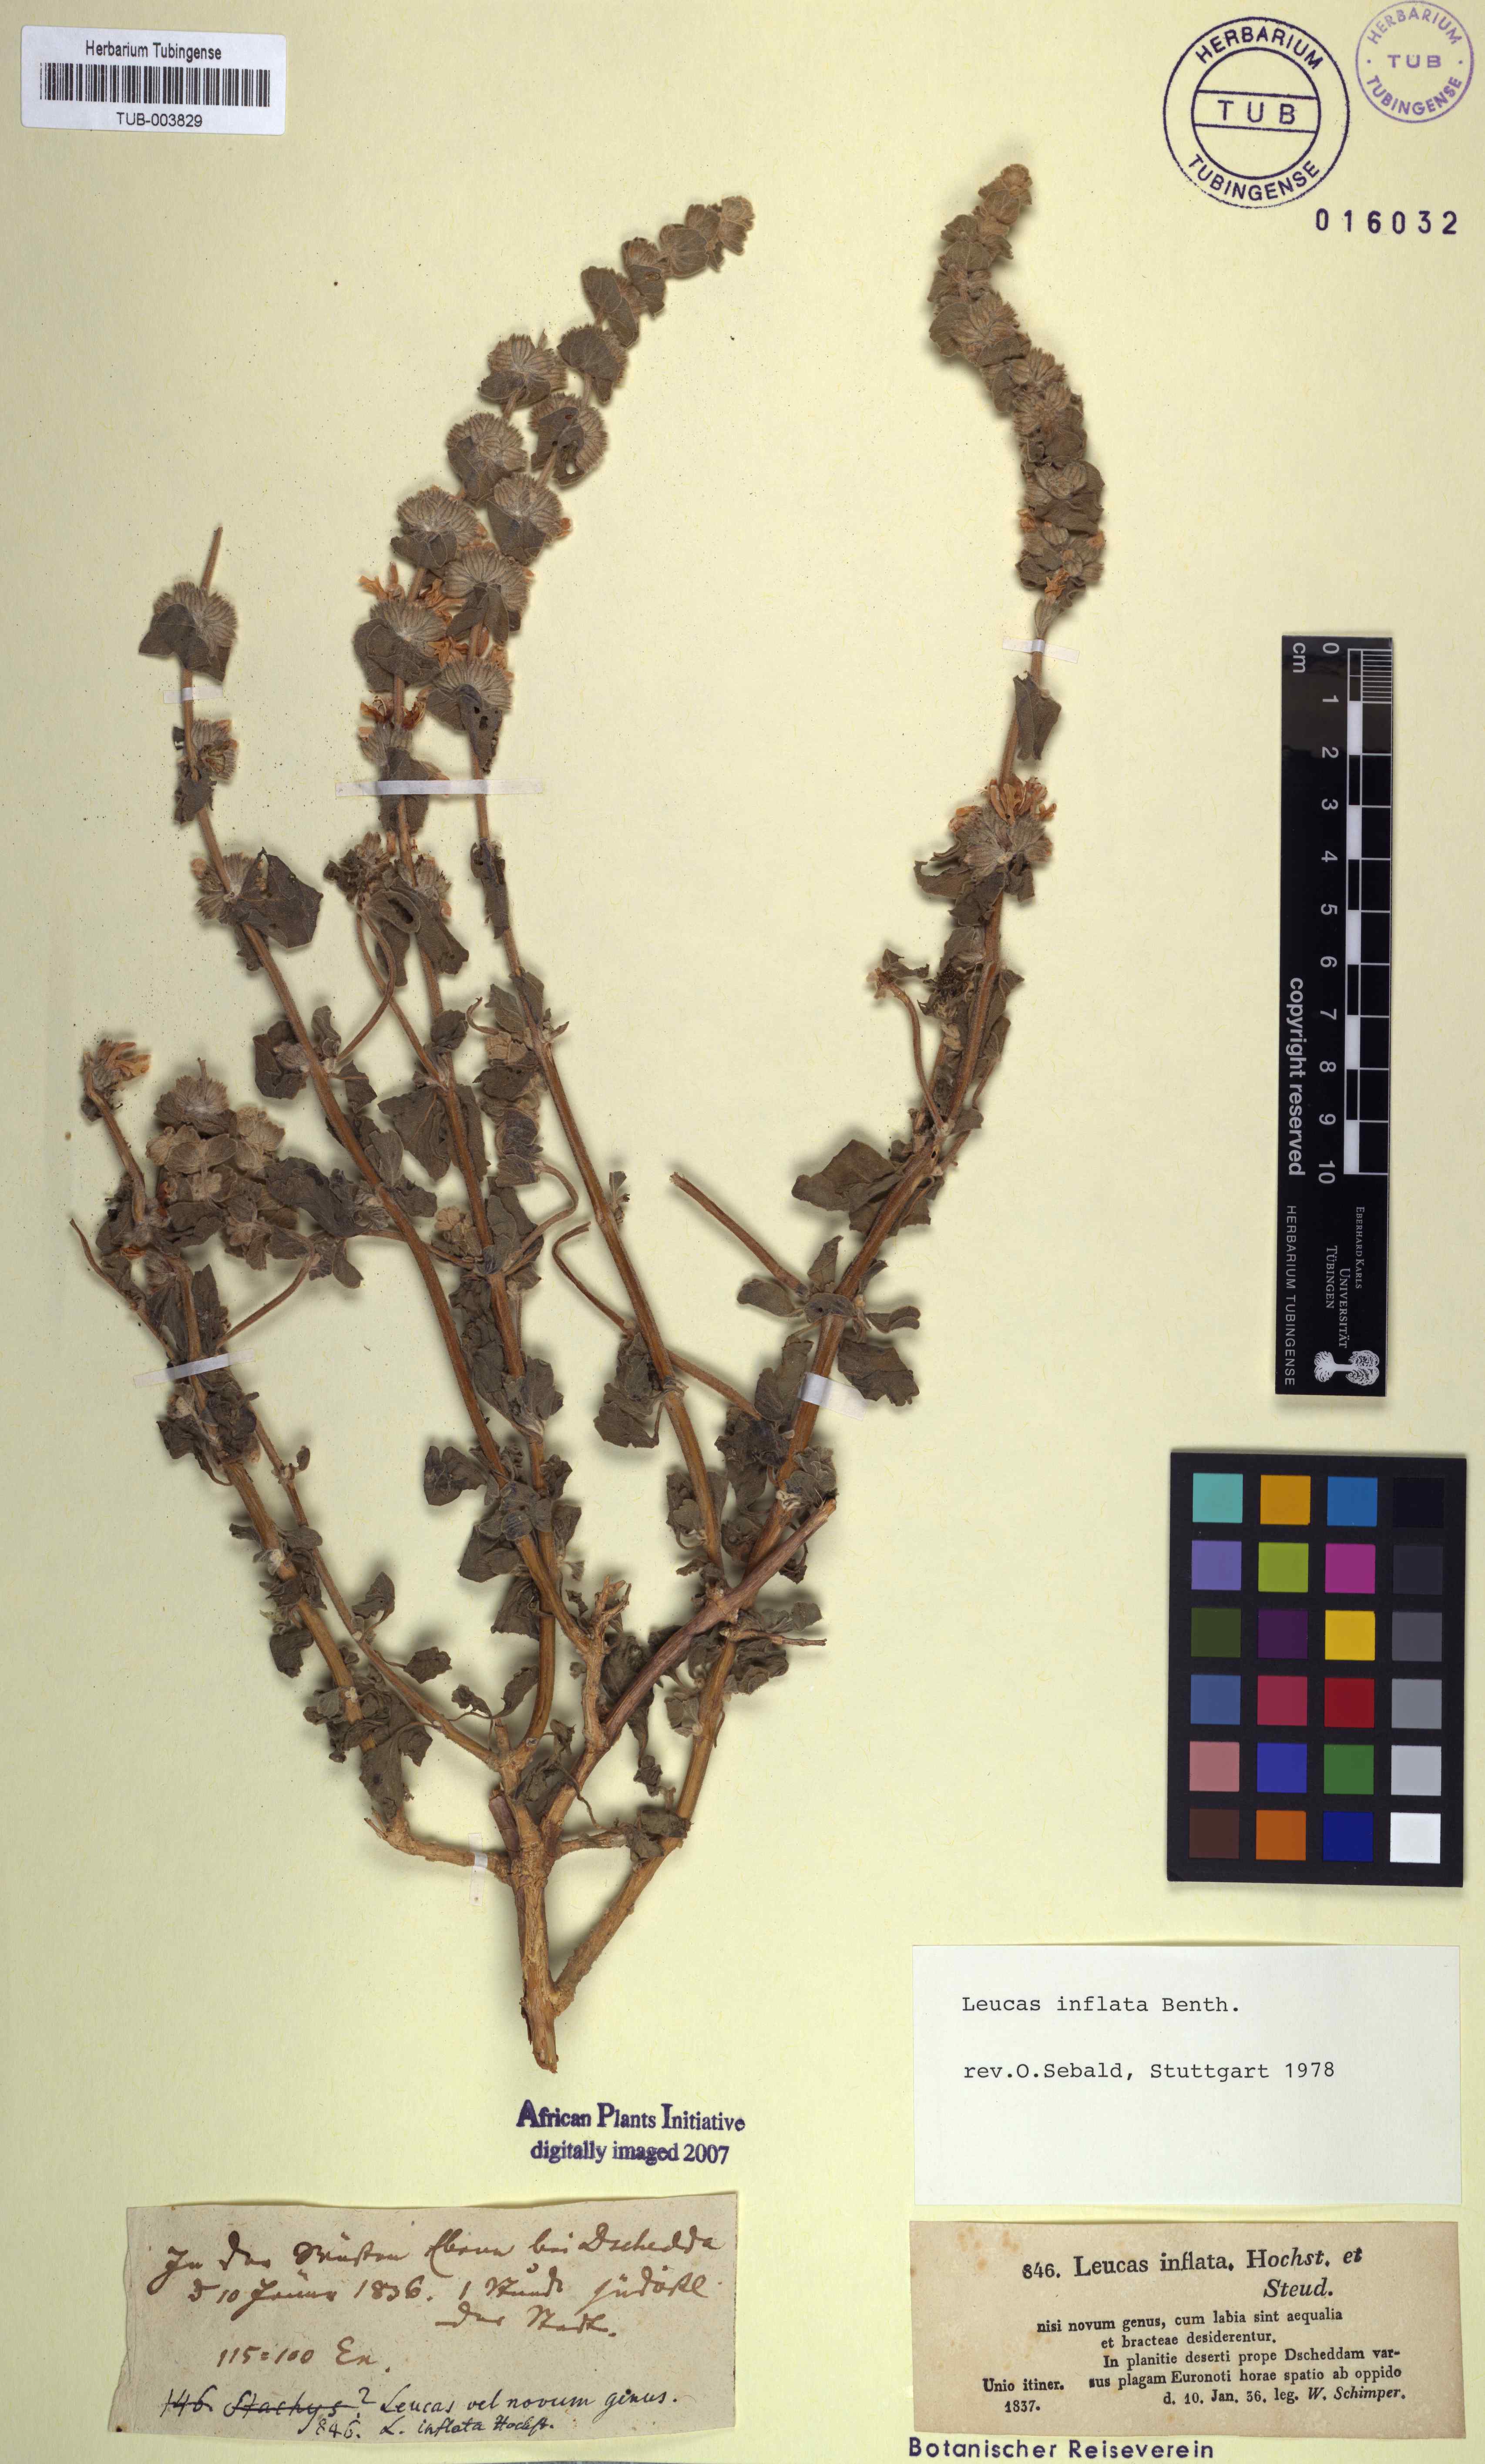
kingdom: Plantae
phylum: Tracheophyta
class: Magnoliopsida
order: Lamiales
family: Lamiaceae
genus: Leucas
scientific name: Leucas inflata
